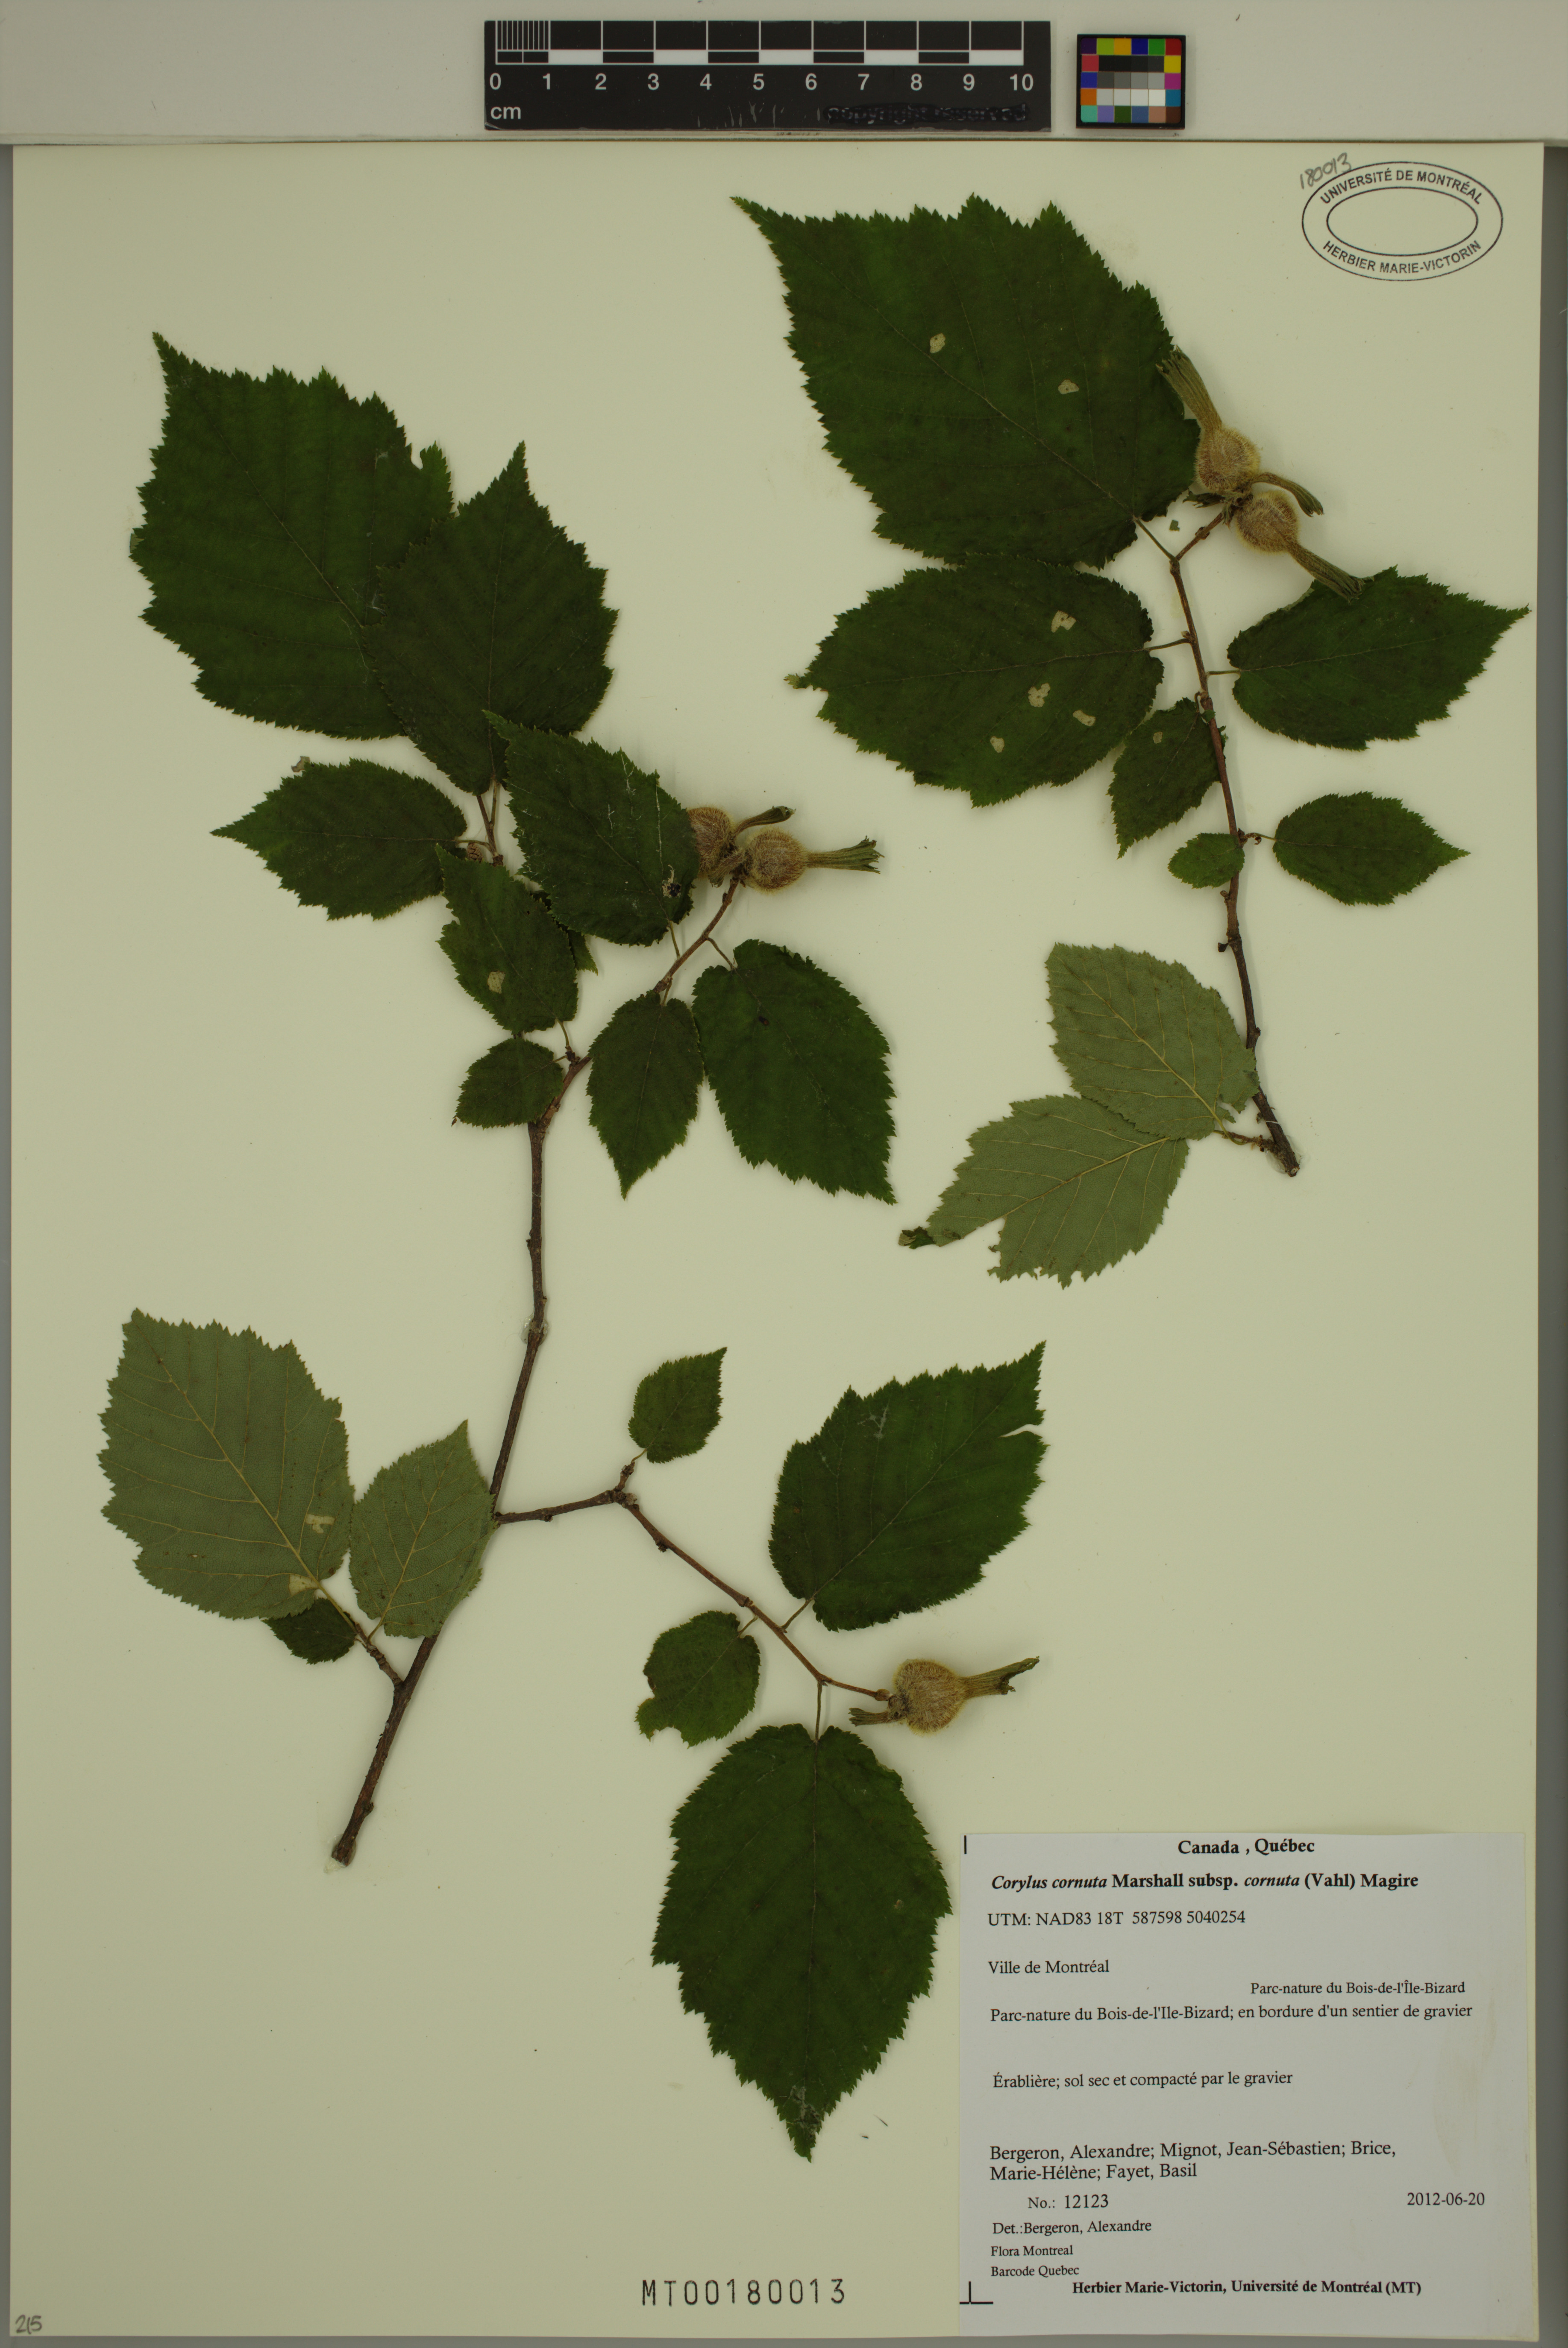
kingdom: Plantae
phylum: Tracheophyta
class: Magnoliopsida
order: Fagales
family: Betulaceae
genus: Corylus
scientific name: Corylus cornuta
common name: Beaked hazel
